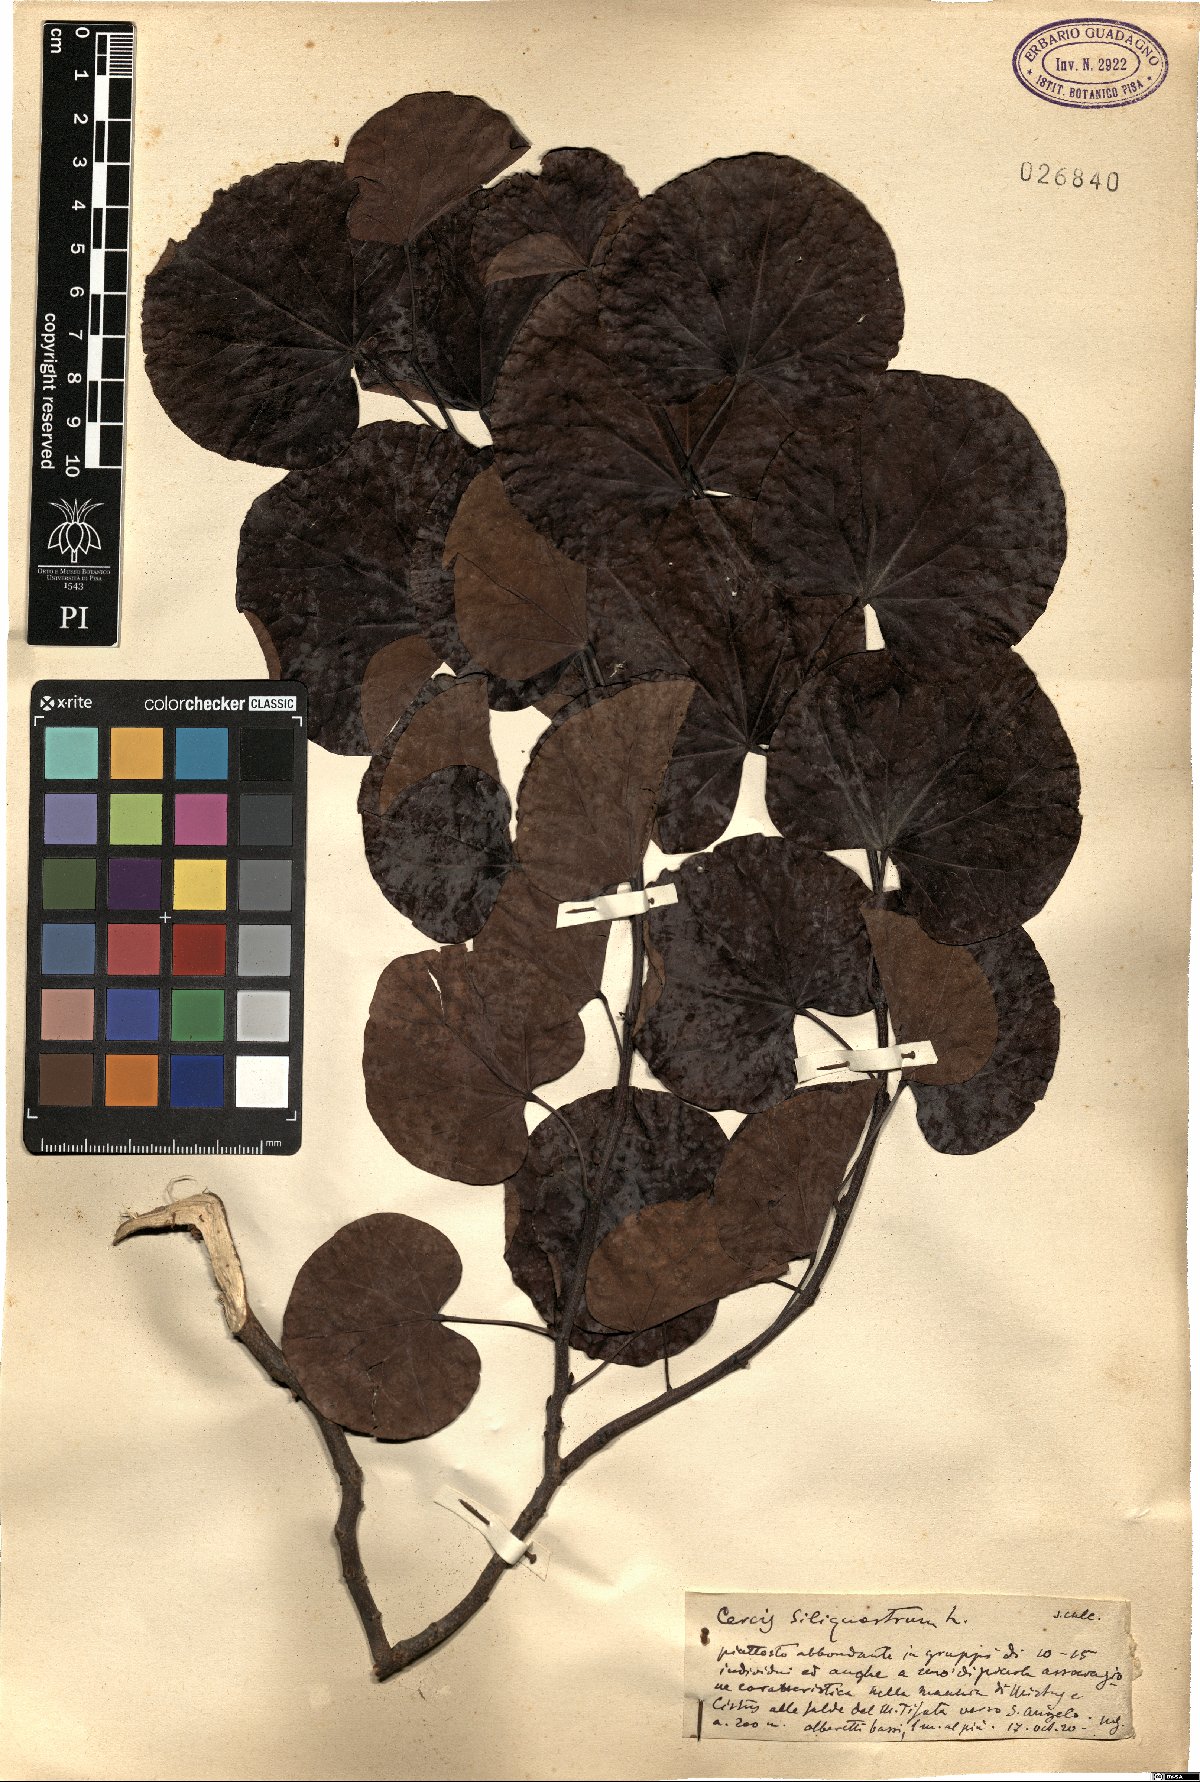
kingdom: Plantae
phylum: Tracheophyta
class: Magnoliopsida
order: Fabales
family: Fabaceae
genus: Cercis
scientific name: Cercis siliquastrum
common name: Judas tree
